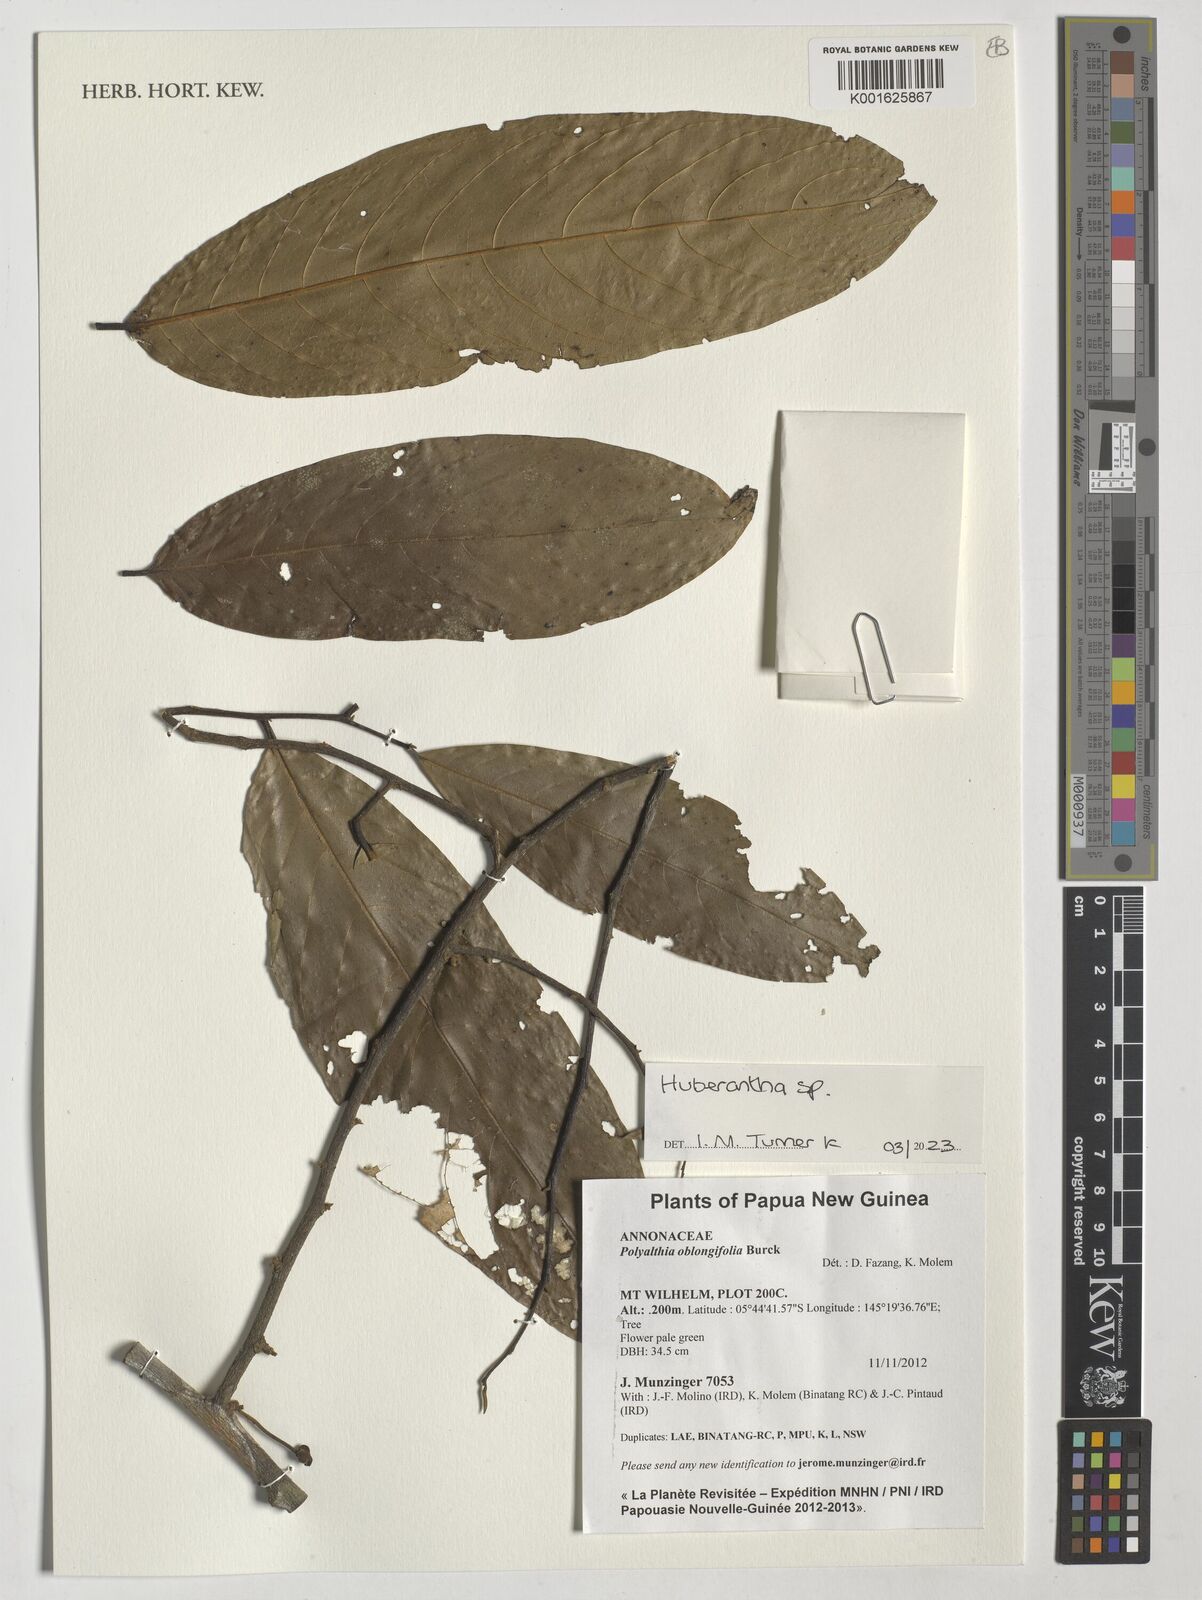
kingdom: Plantae
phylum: Tracheophyta
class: Magnoliopsida
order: Magnoliales
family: Annonaceae
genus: Huberantha
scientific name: Huberantha
